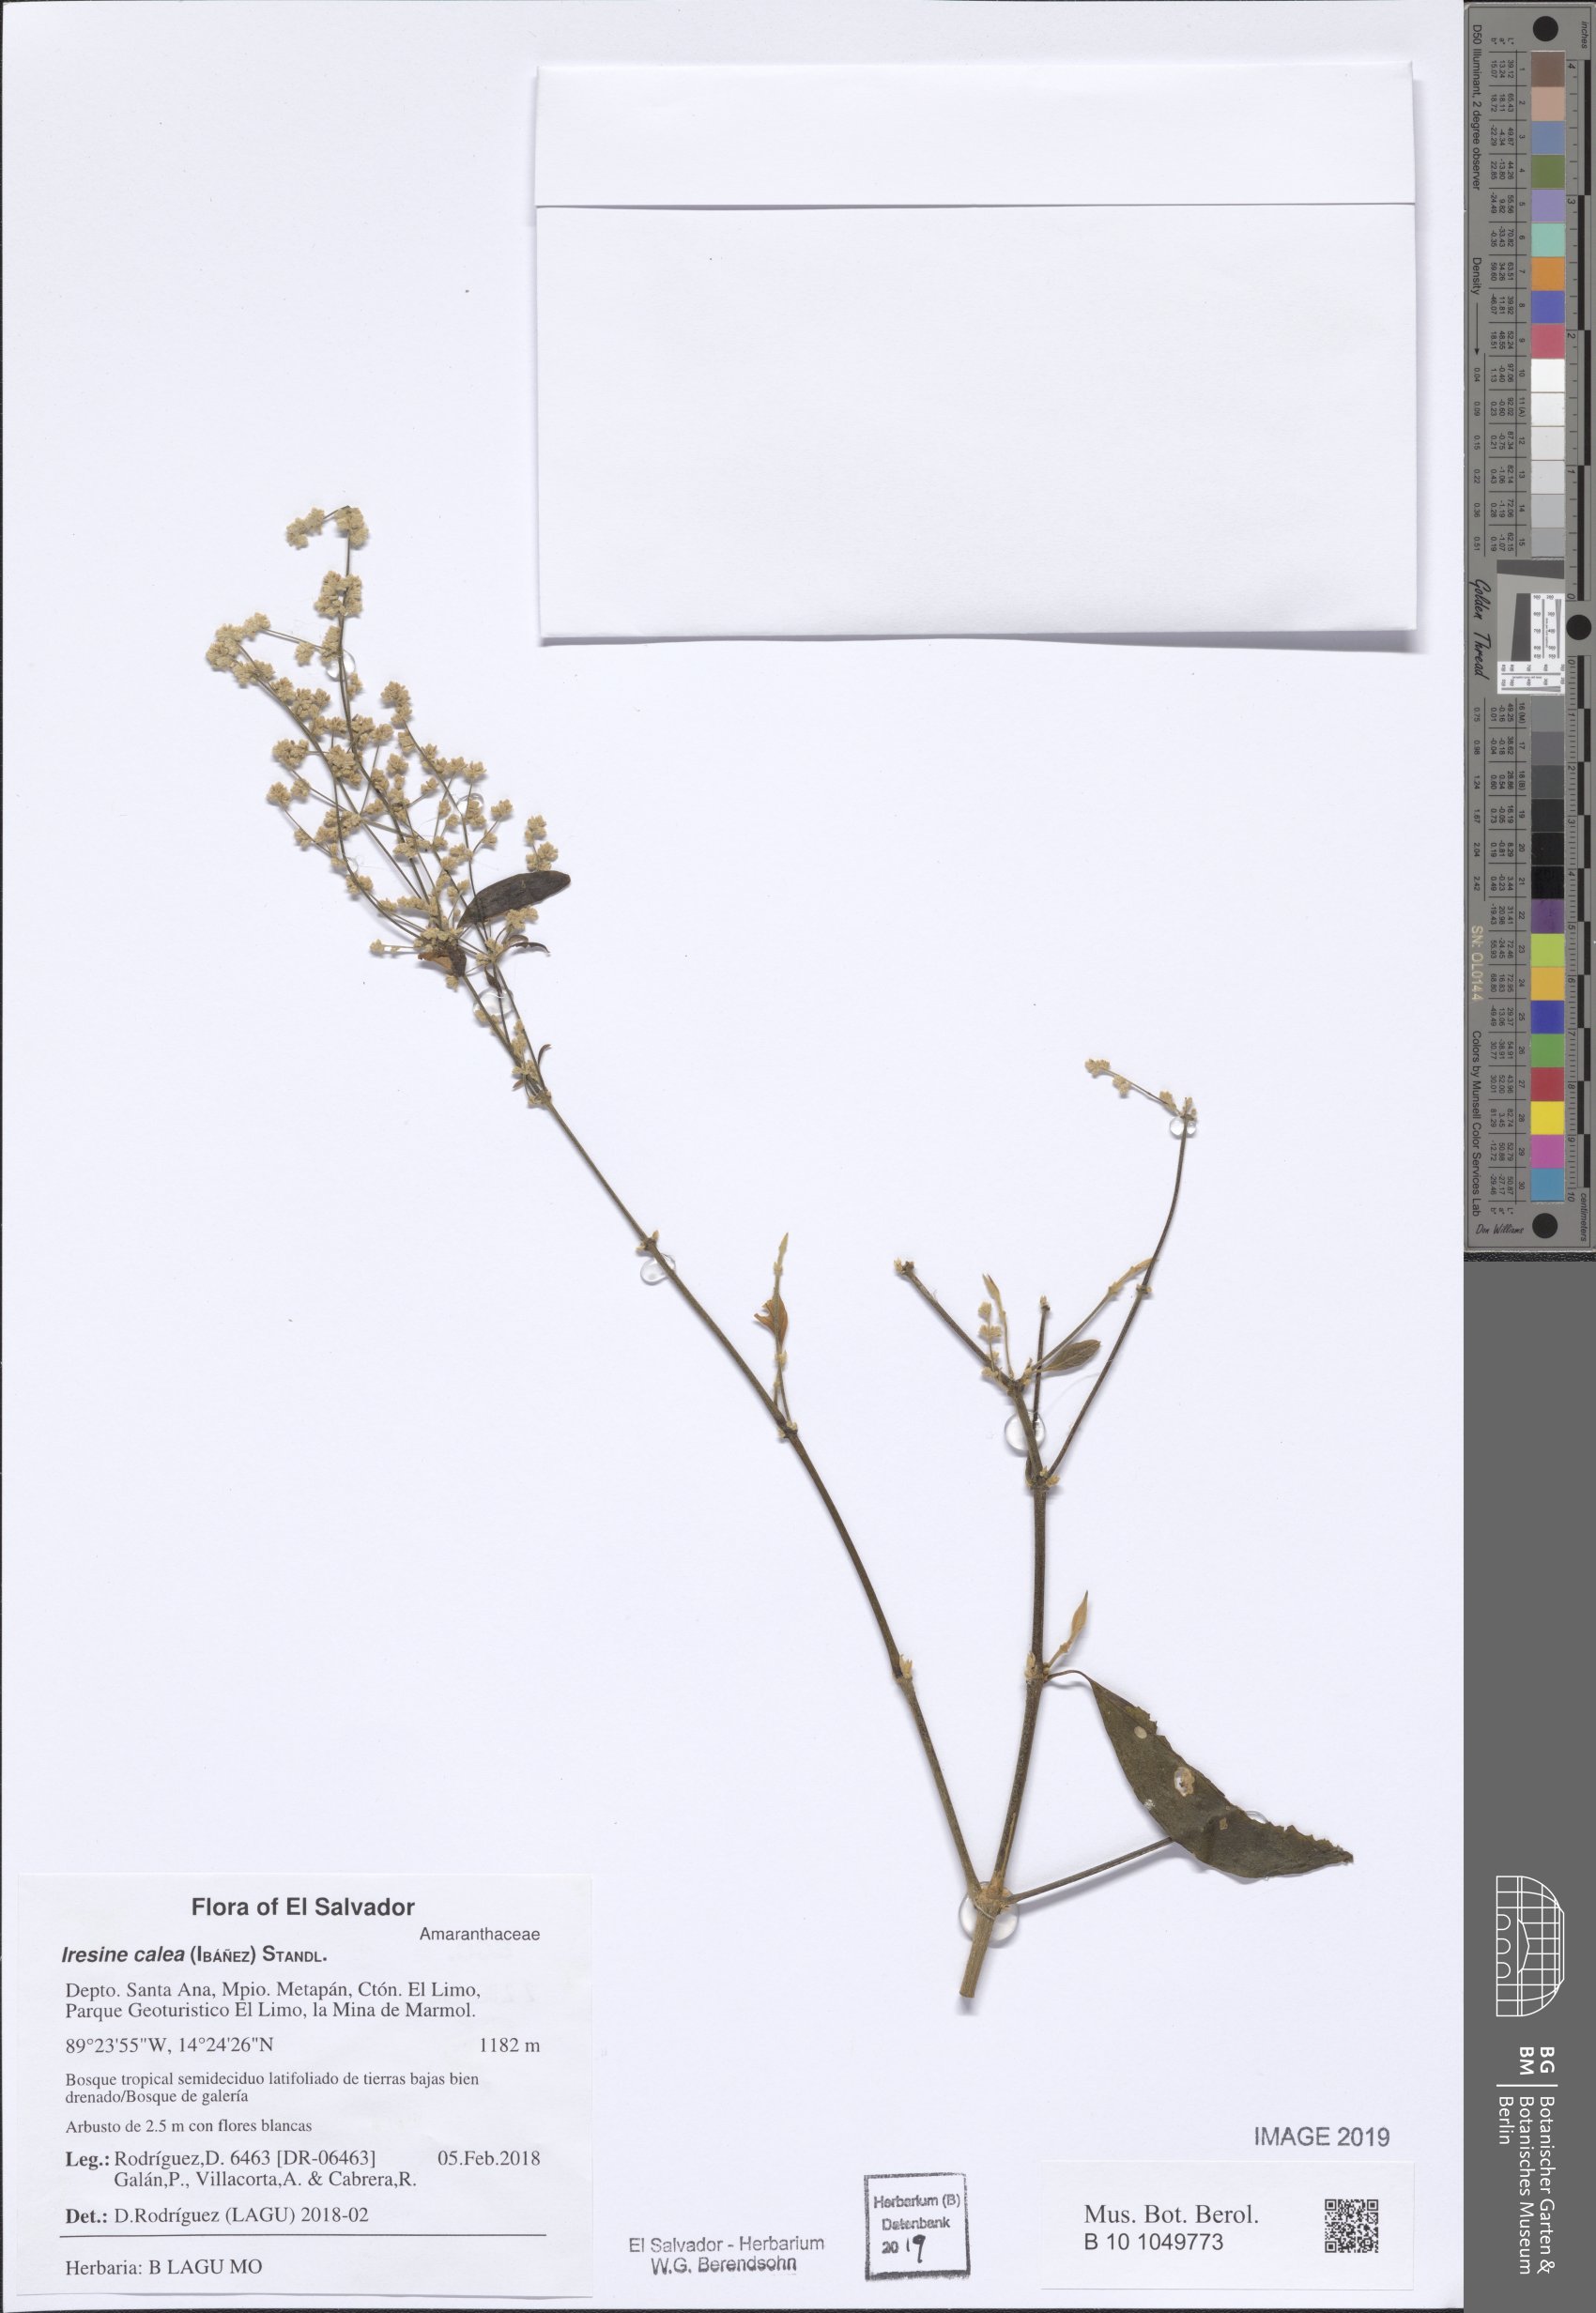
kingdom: Plantae
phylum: Tracheophyta
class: Magnoliopsida
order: Caryophyllales
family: Amaranthaceae
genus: Iresine
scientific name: Iresine latifolia
